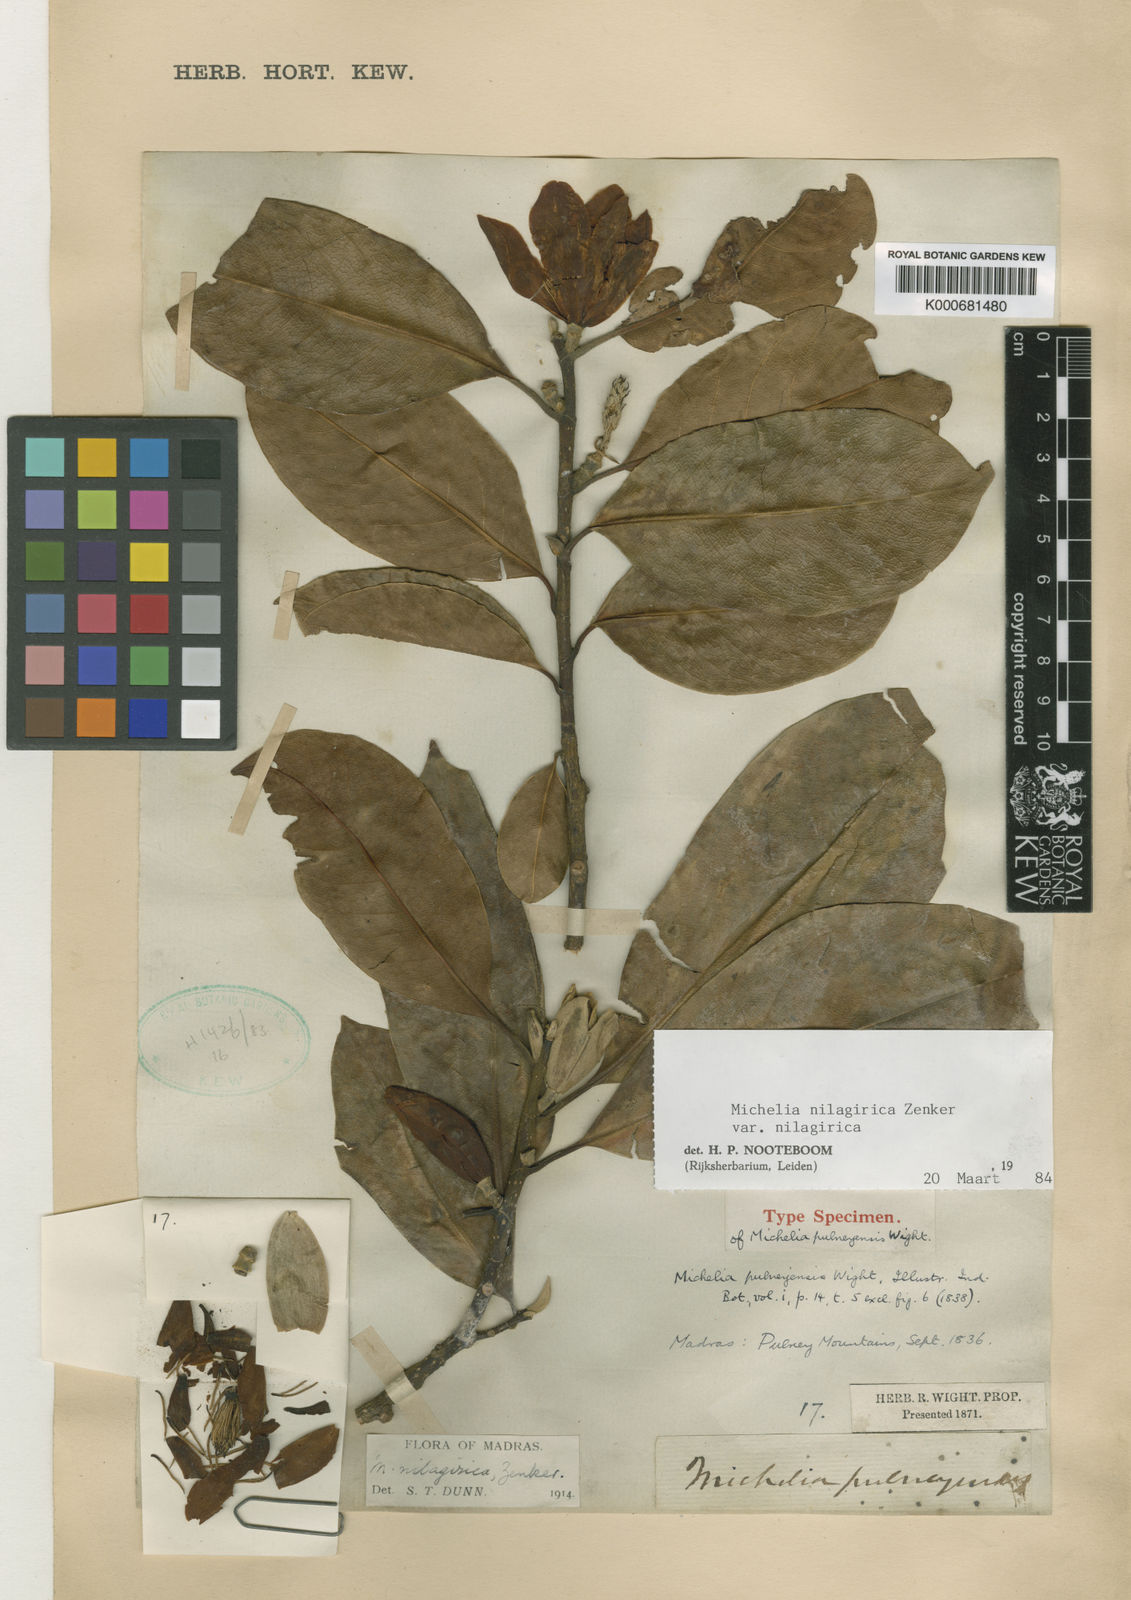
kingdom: Plantae
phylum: Tracheophyta
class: Magnoliopsida
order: Magnoliales
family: Magnoliaceae
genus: Magnolia
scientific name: Magnolia nilagirica
